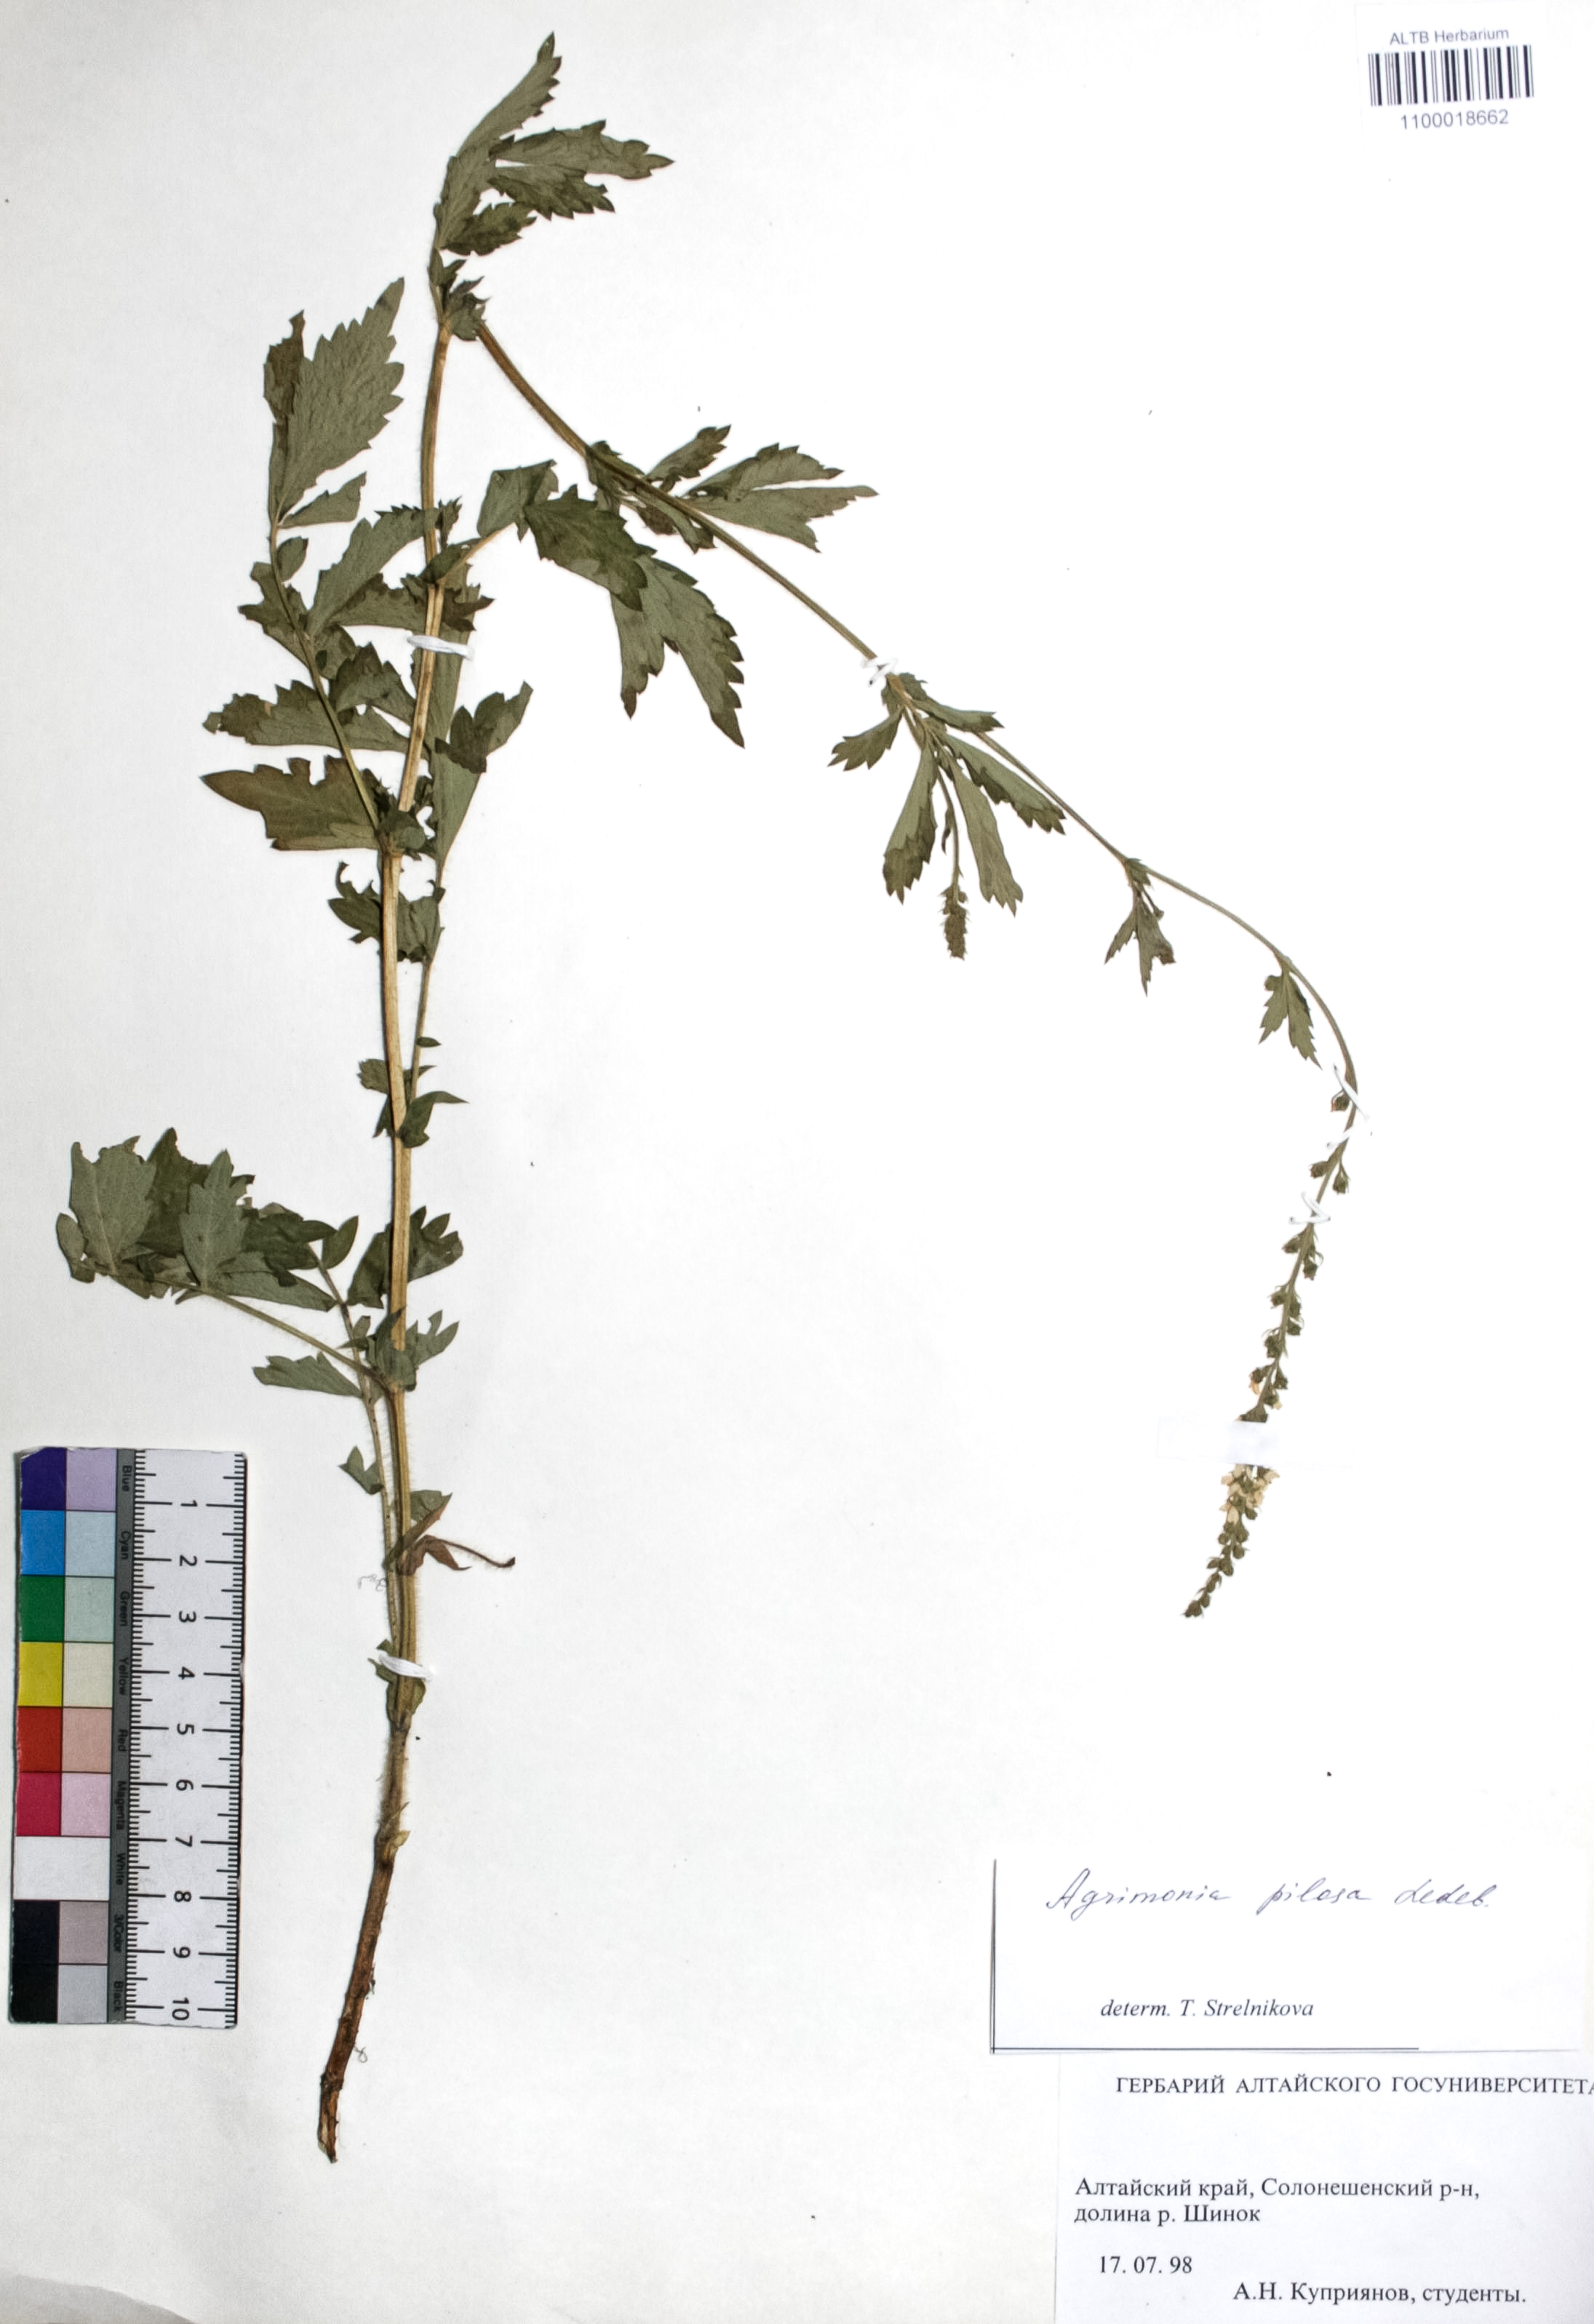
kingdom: Plantae
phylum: Tracheophyta
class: Magnoliopsida
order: Rosales
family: Rosaceae
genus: Agrimonia
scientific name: Agrimonia pilosa
